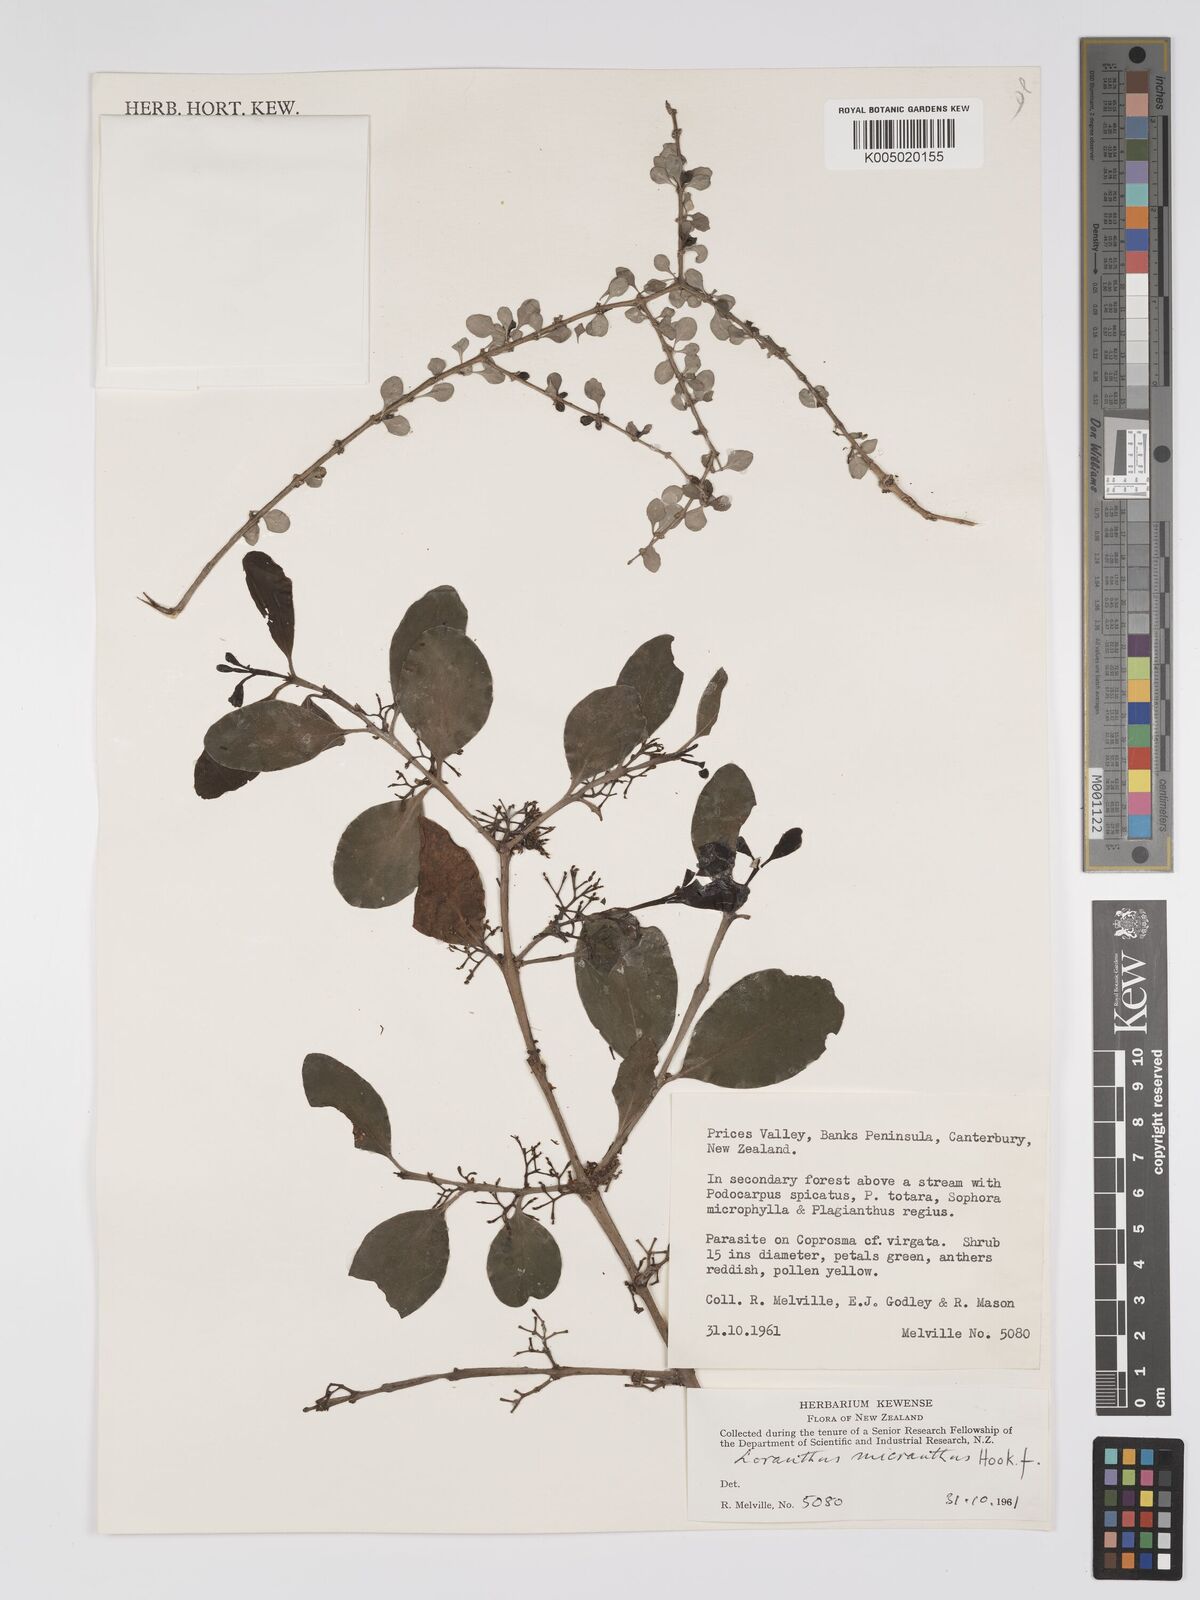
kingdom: Plantae
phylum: Tracheophyta
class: Magnoliopsida
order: Santalales
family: Loranthaceae
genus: Ileostylus
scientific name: Ileostylus micranthus
